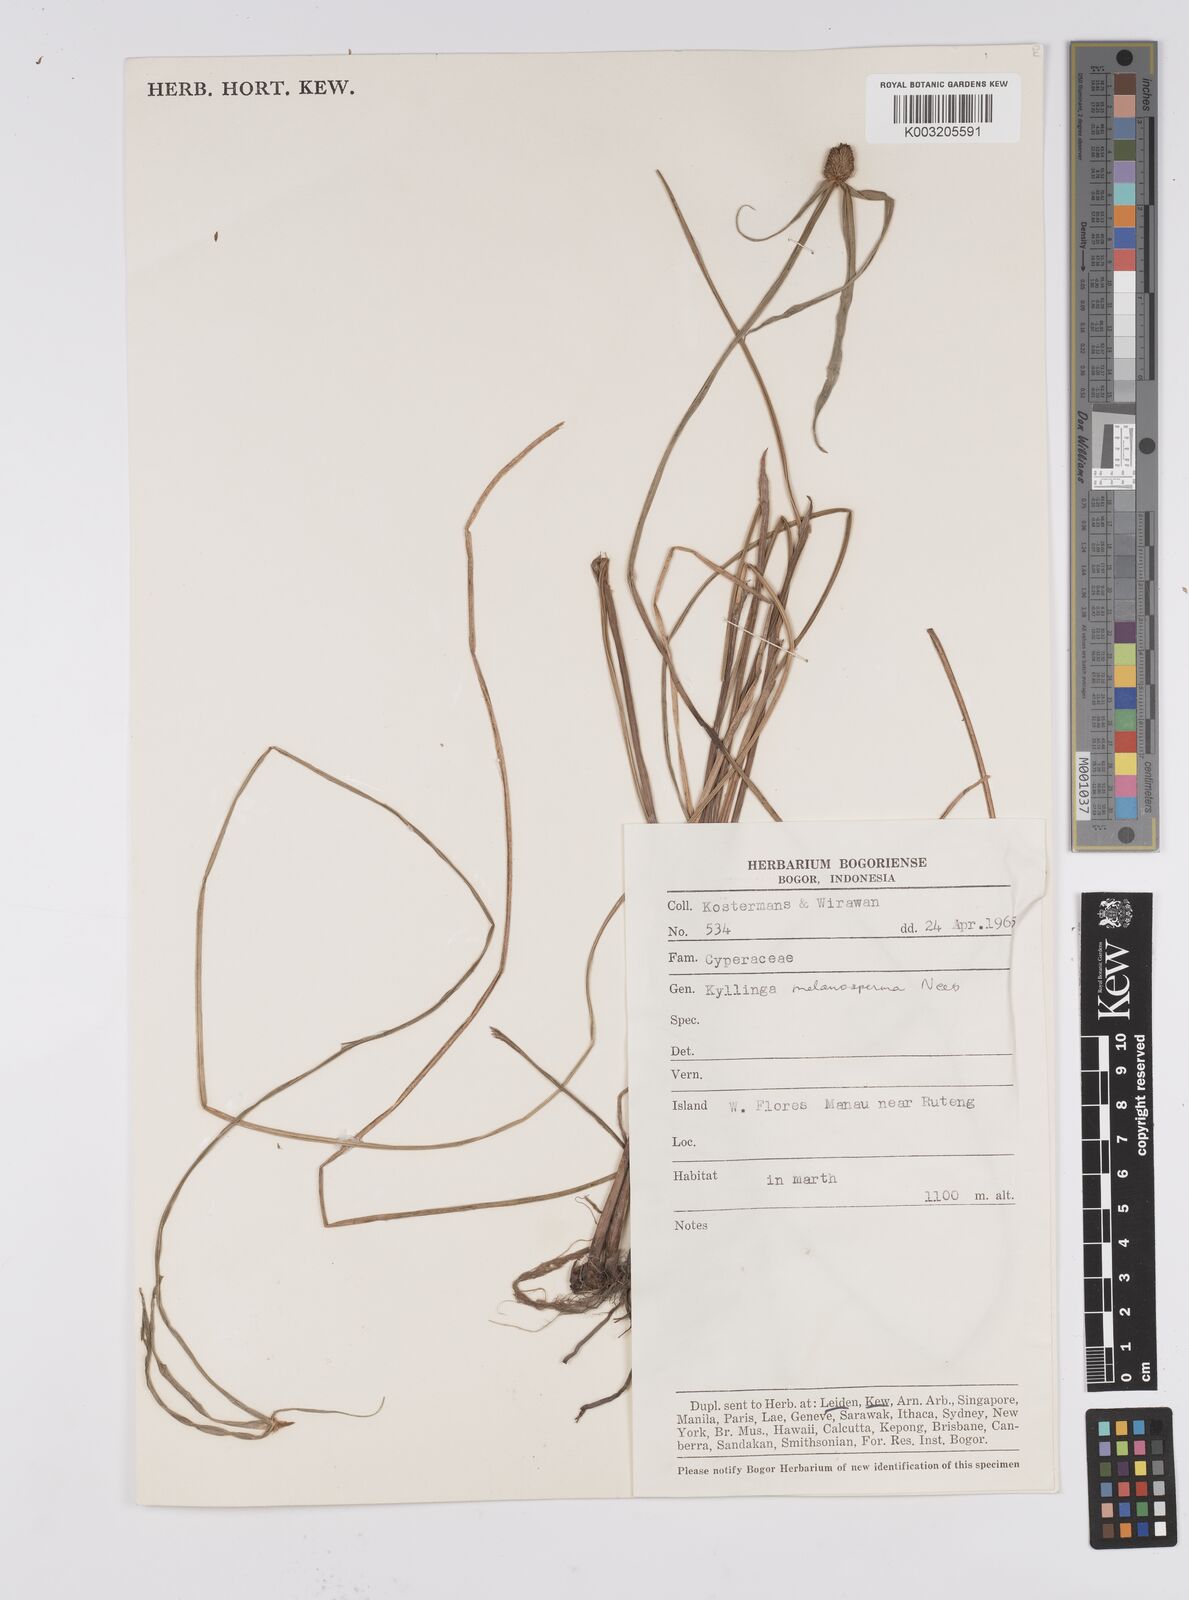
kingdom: Plantae
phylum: Tracheophyta
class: Liliopsida
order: Poales
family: Cyperaceae
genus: Cyperus
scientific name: Cyperus melanospermus
